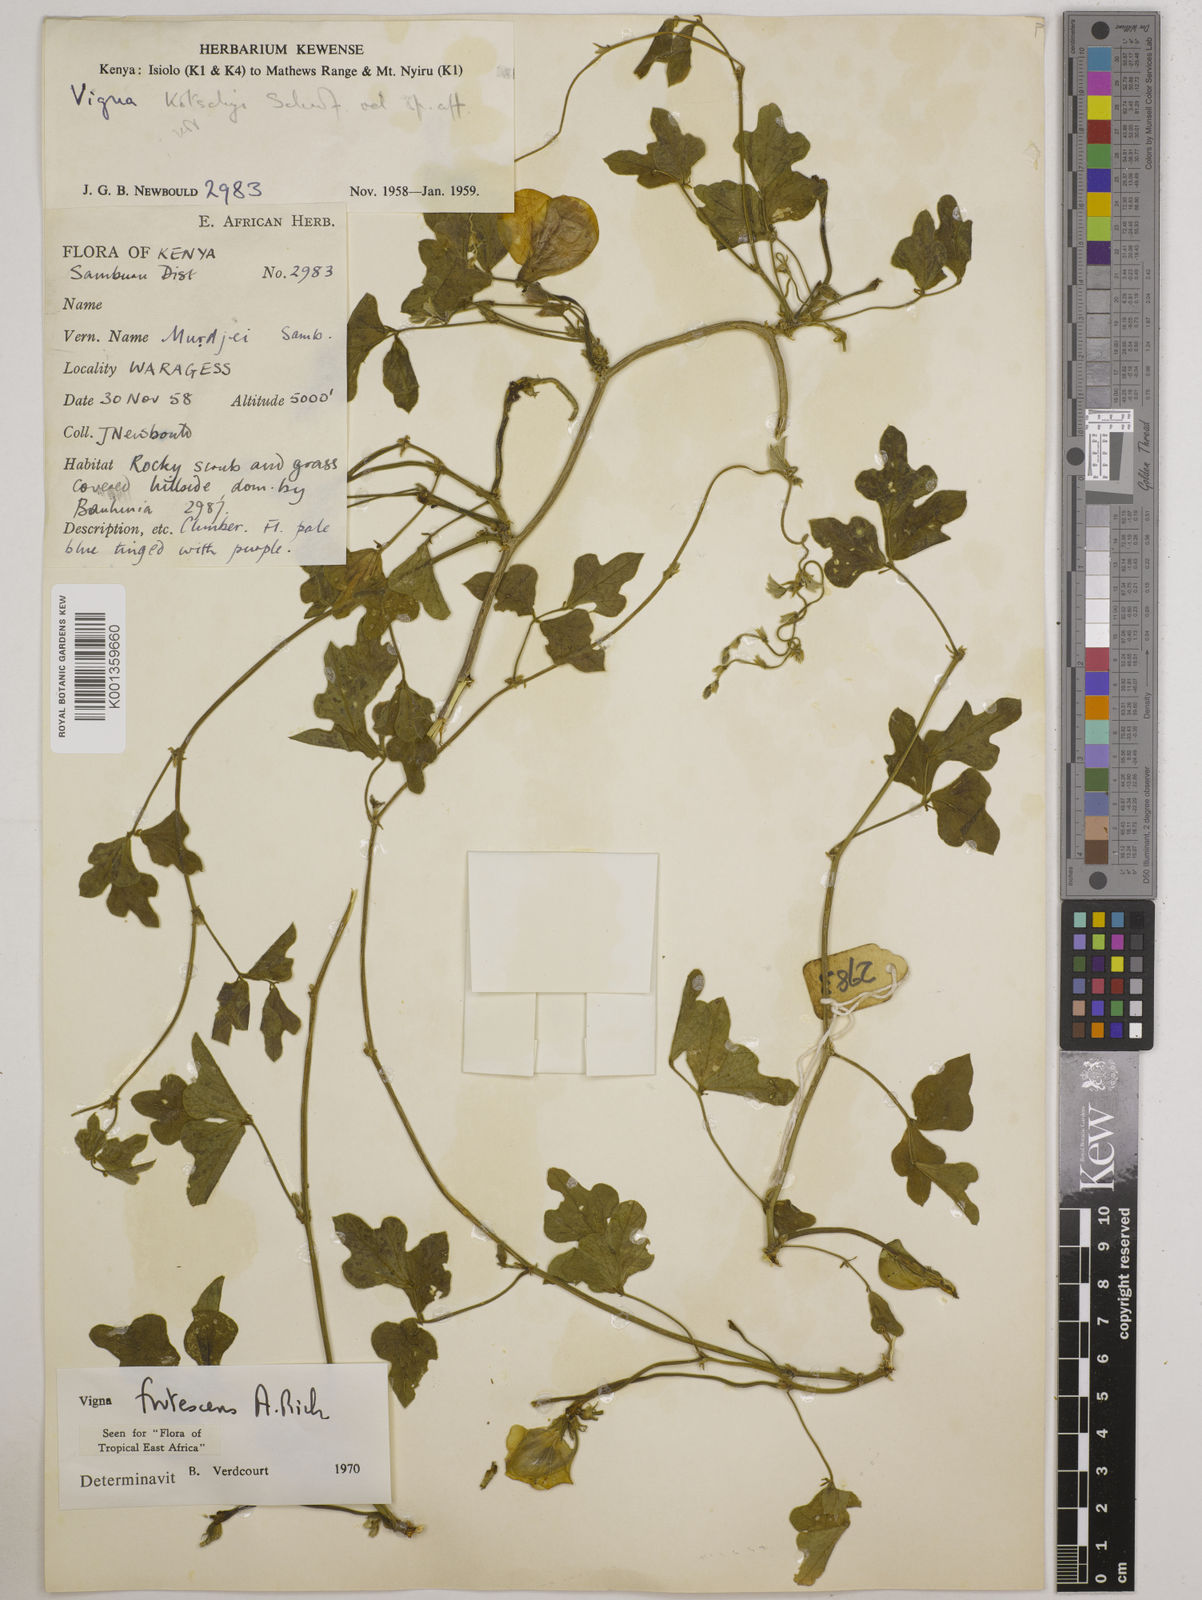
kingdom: Plantae
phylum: Tracheophyta
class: Magnoliopsida
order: Fabales
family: Fabaceae
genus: Vigna
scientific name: Vigna frutescens
